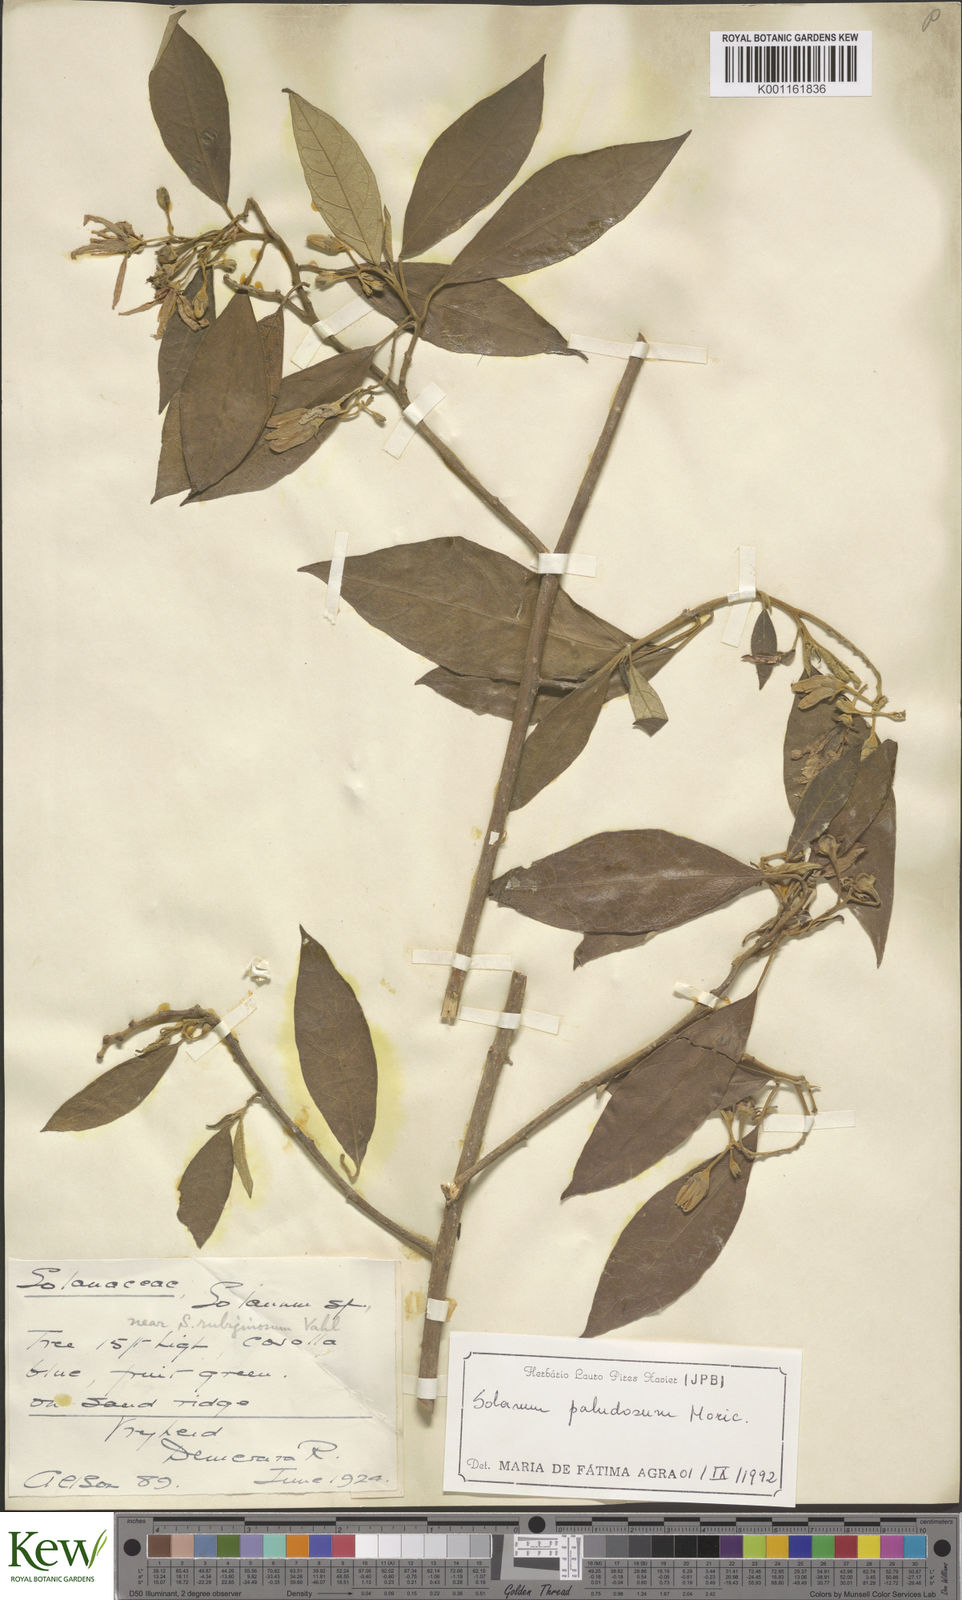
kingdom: Plantae
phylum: Tracheophyta
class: Magnoliopsida
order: Solanales
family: Solanaceae
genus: Solanum
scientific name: Solanum paludosum
